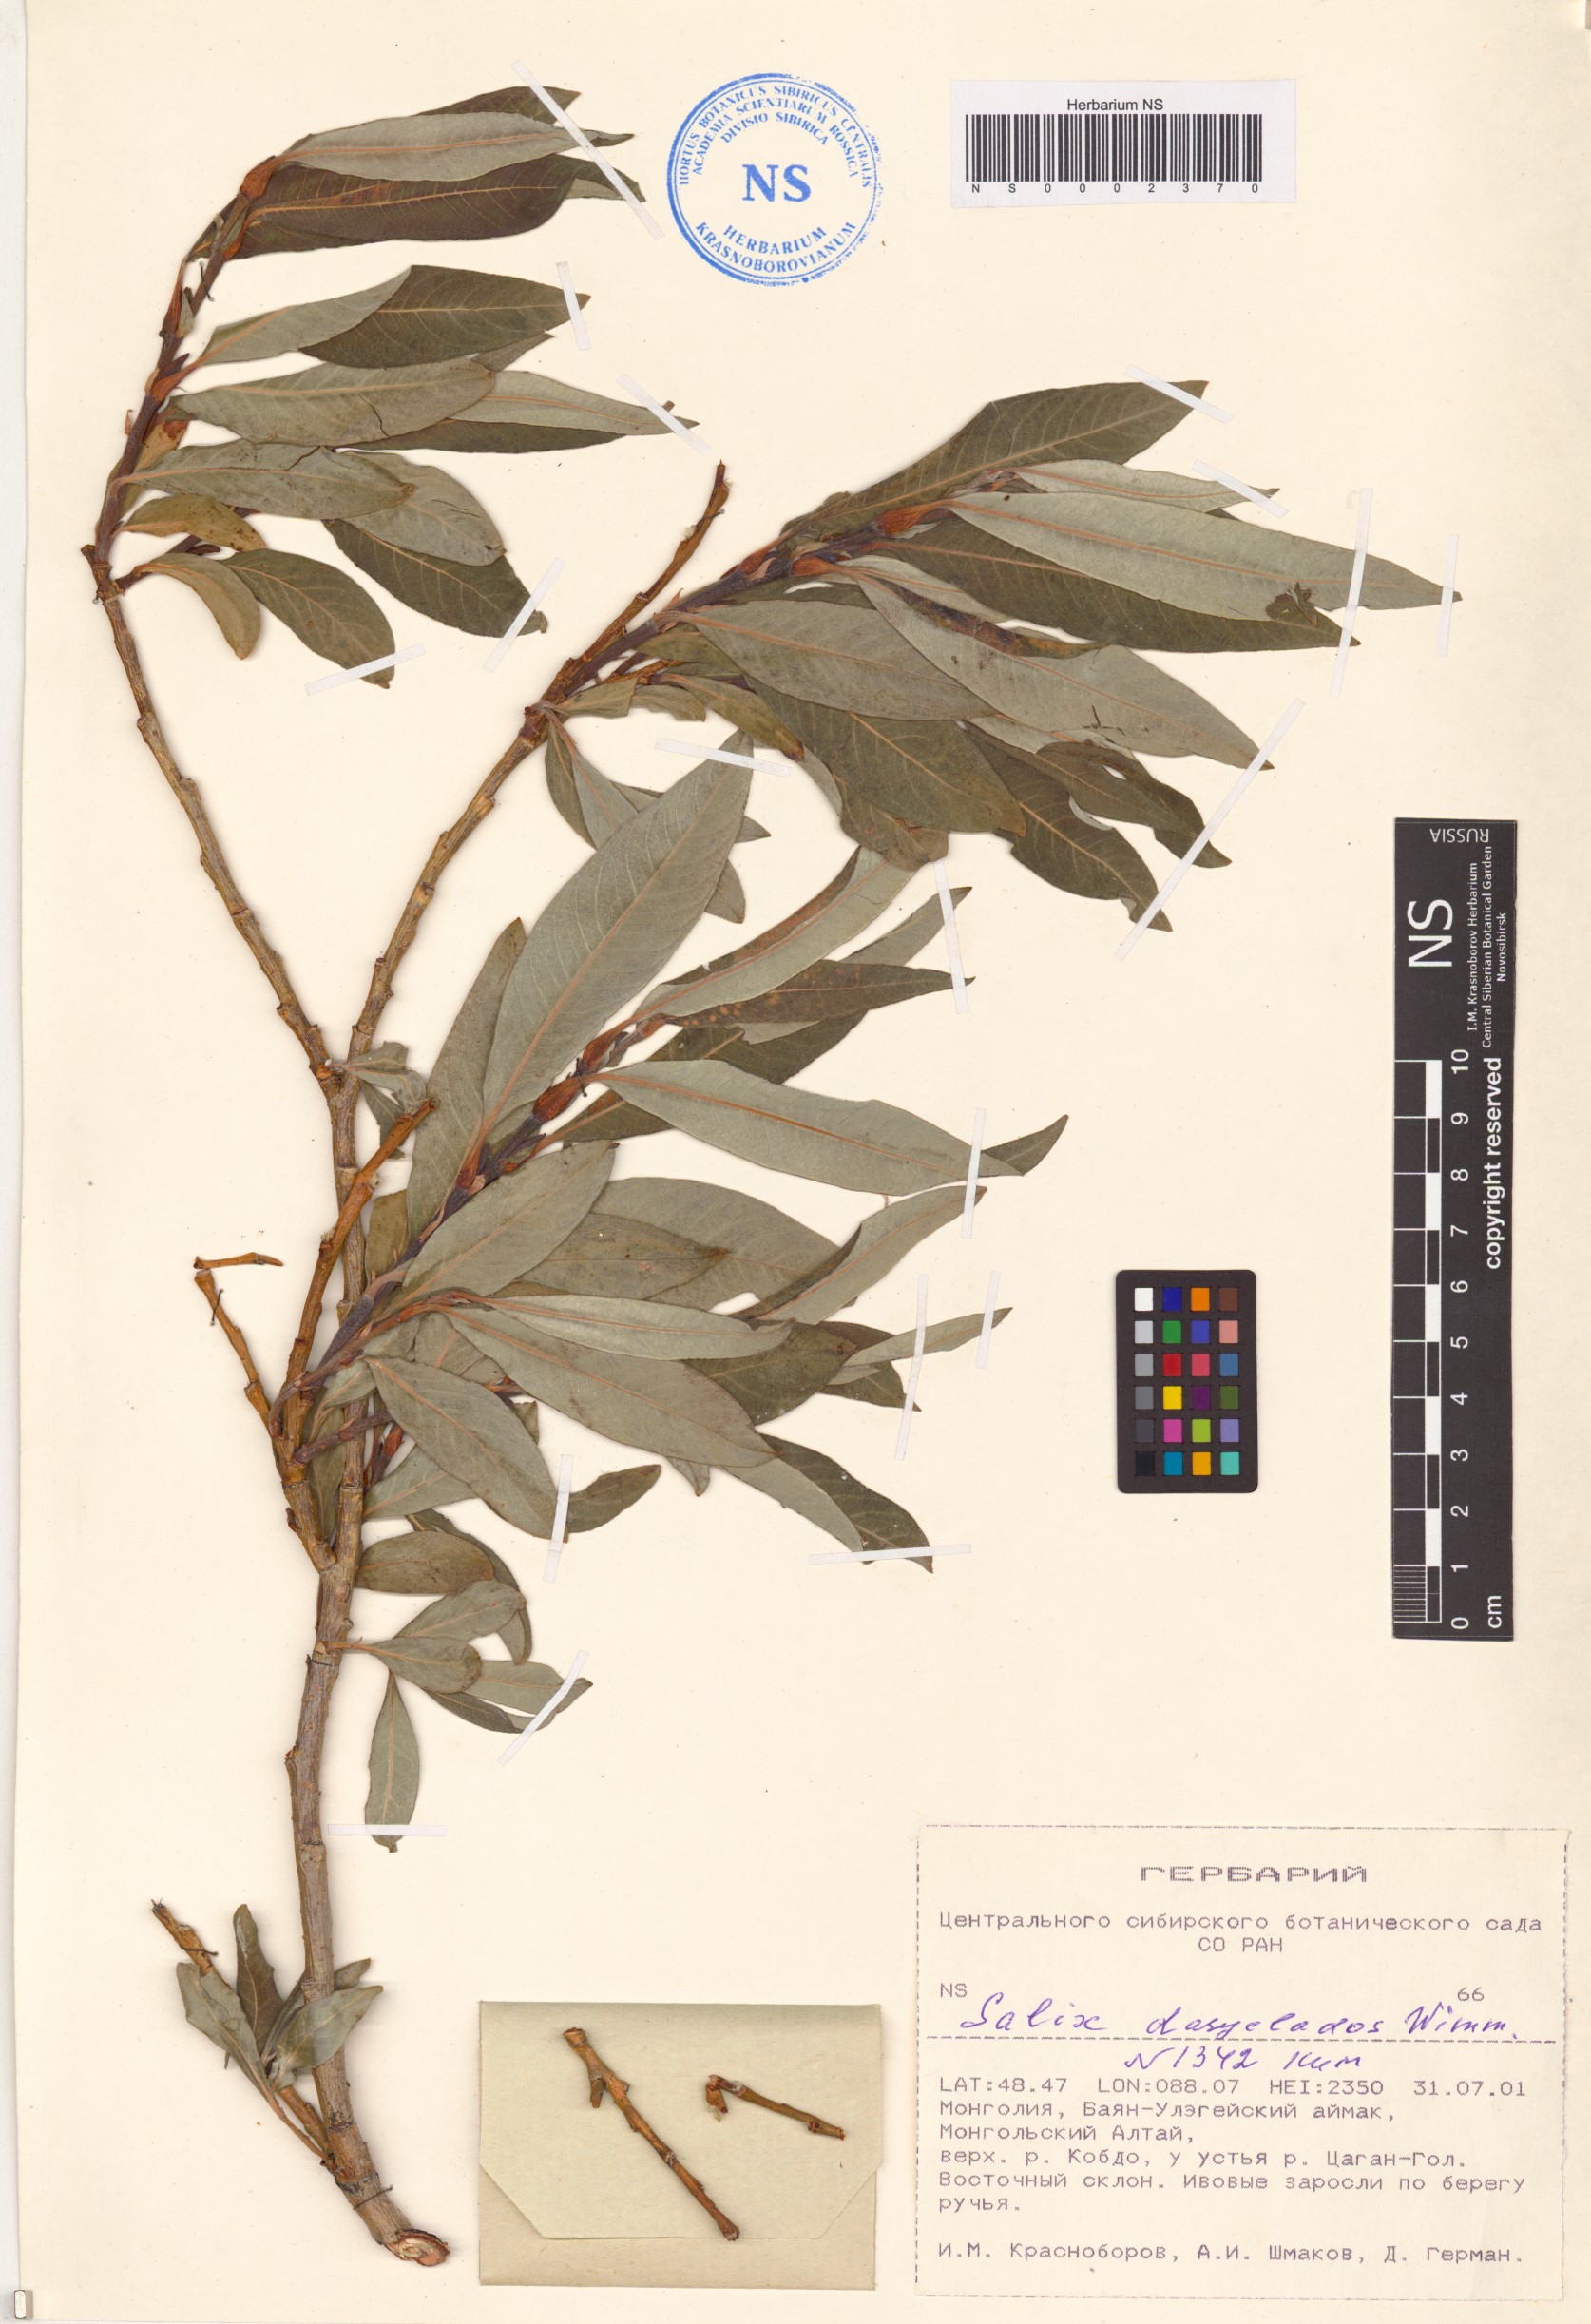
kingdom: Plantae
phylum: Tracheophyta
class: Magnoliopsida
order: Malpighiales
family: Salicaceae
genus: Salix
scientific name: Salix gmelinii
